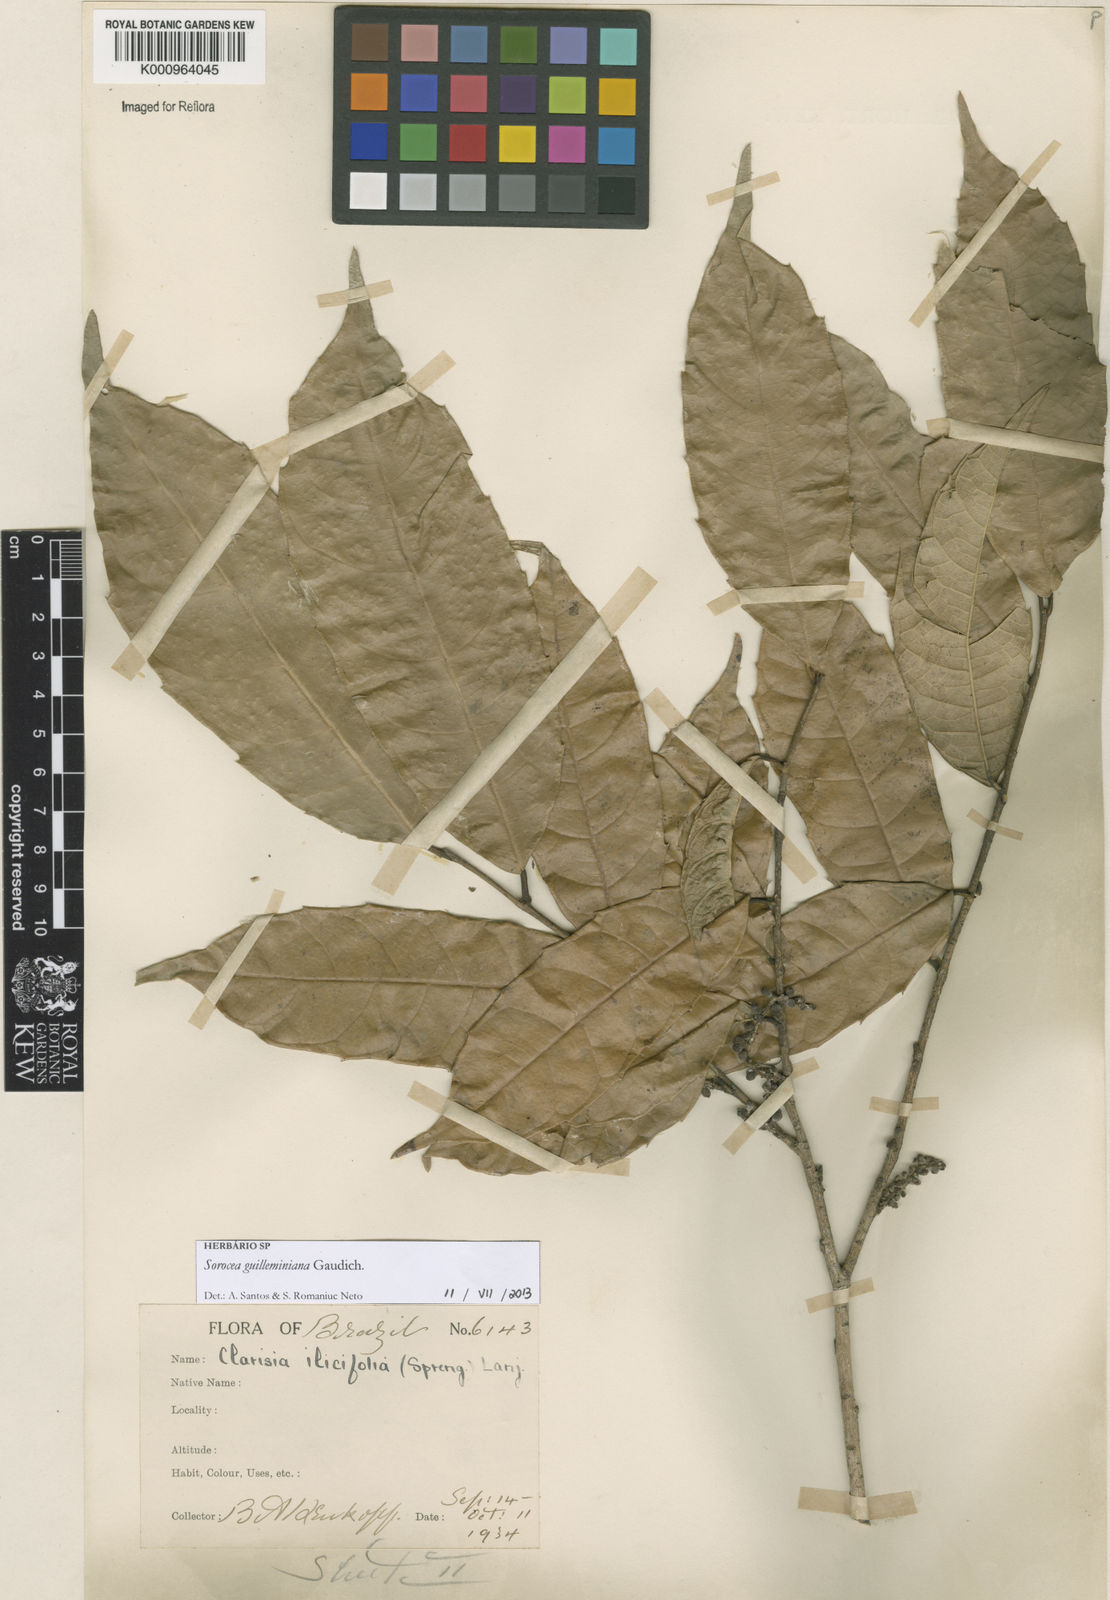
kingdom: Plantae
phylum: Tracheophyta
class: Magnoliopsida
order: Rosales
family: Moraceae
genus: Sorocea
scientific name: Sorocea guilleminiana
